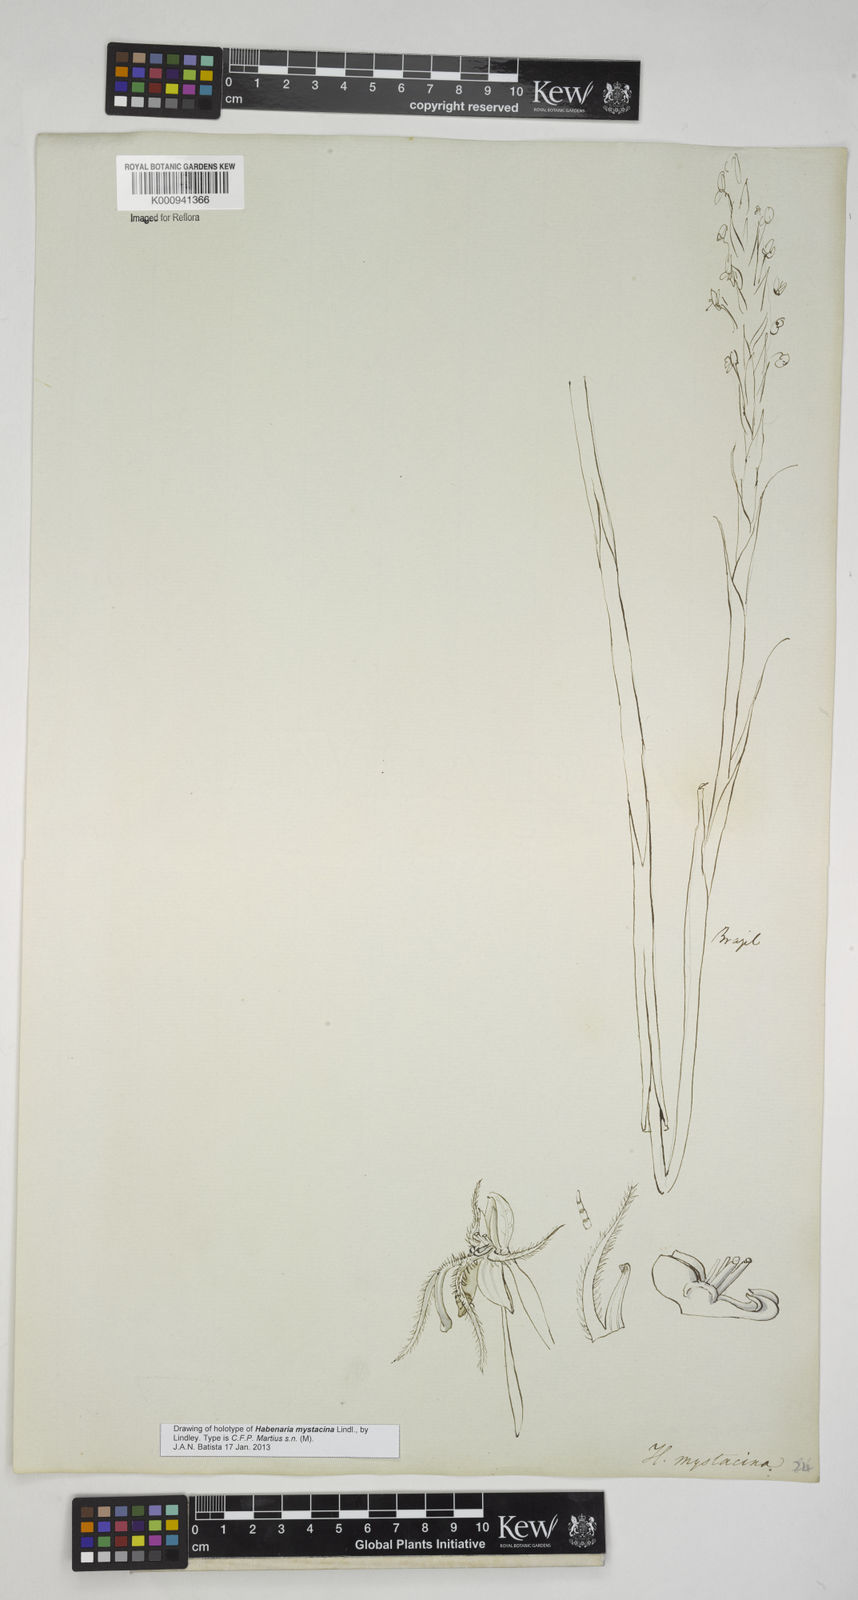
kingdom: Plantae
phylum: Tracheophyta
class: Liliopsida
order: Asparagales
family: Orchidaceae
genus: Habenaria
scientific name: Habenaria mystacina
